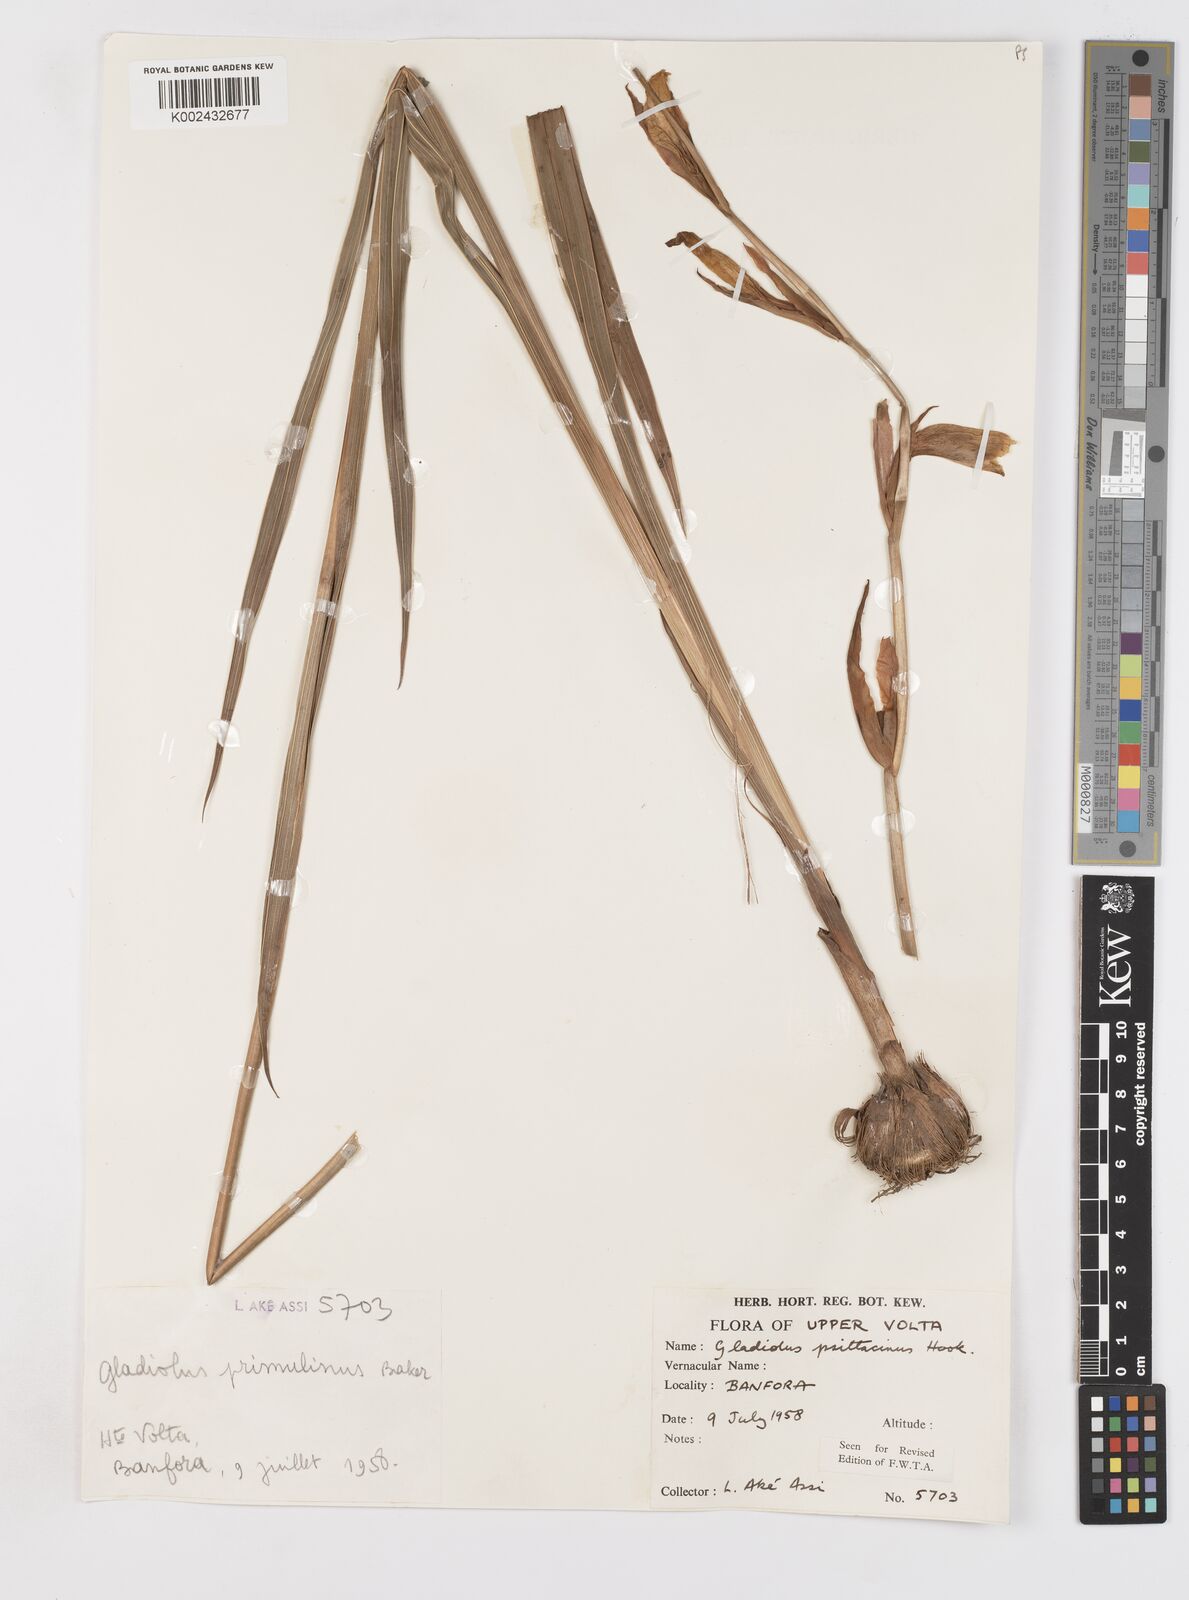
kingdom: Plantae
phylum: Tracheophyta
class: Liliopsida
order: Asparagales
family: Iridaceae
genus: Gladiolus
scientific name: Gladiolus dalenii
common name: Cornflag
